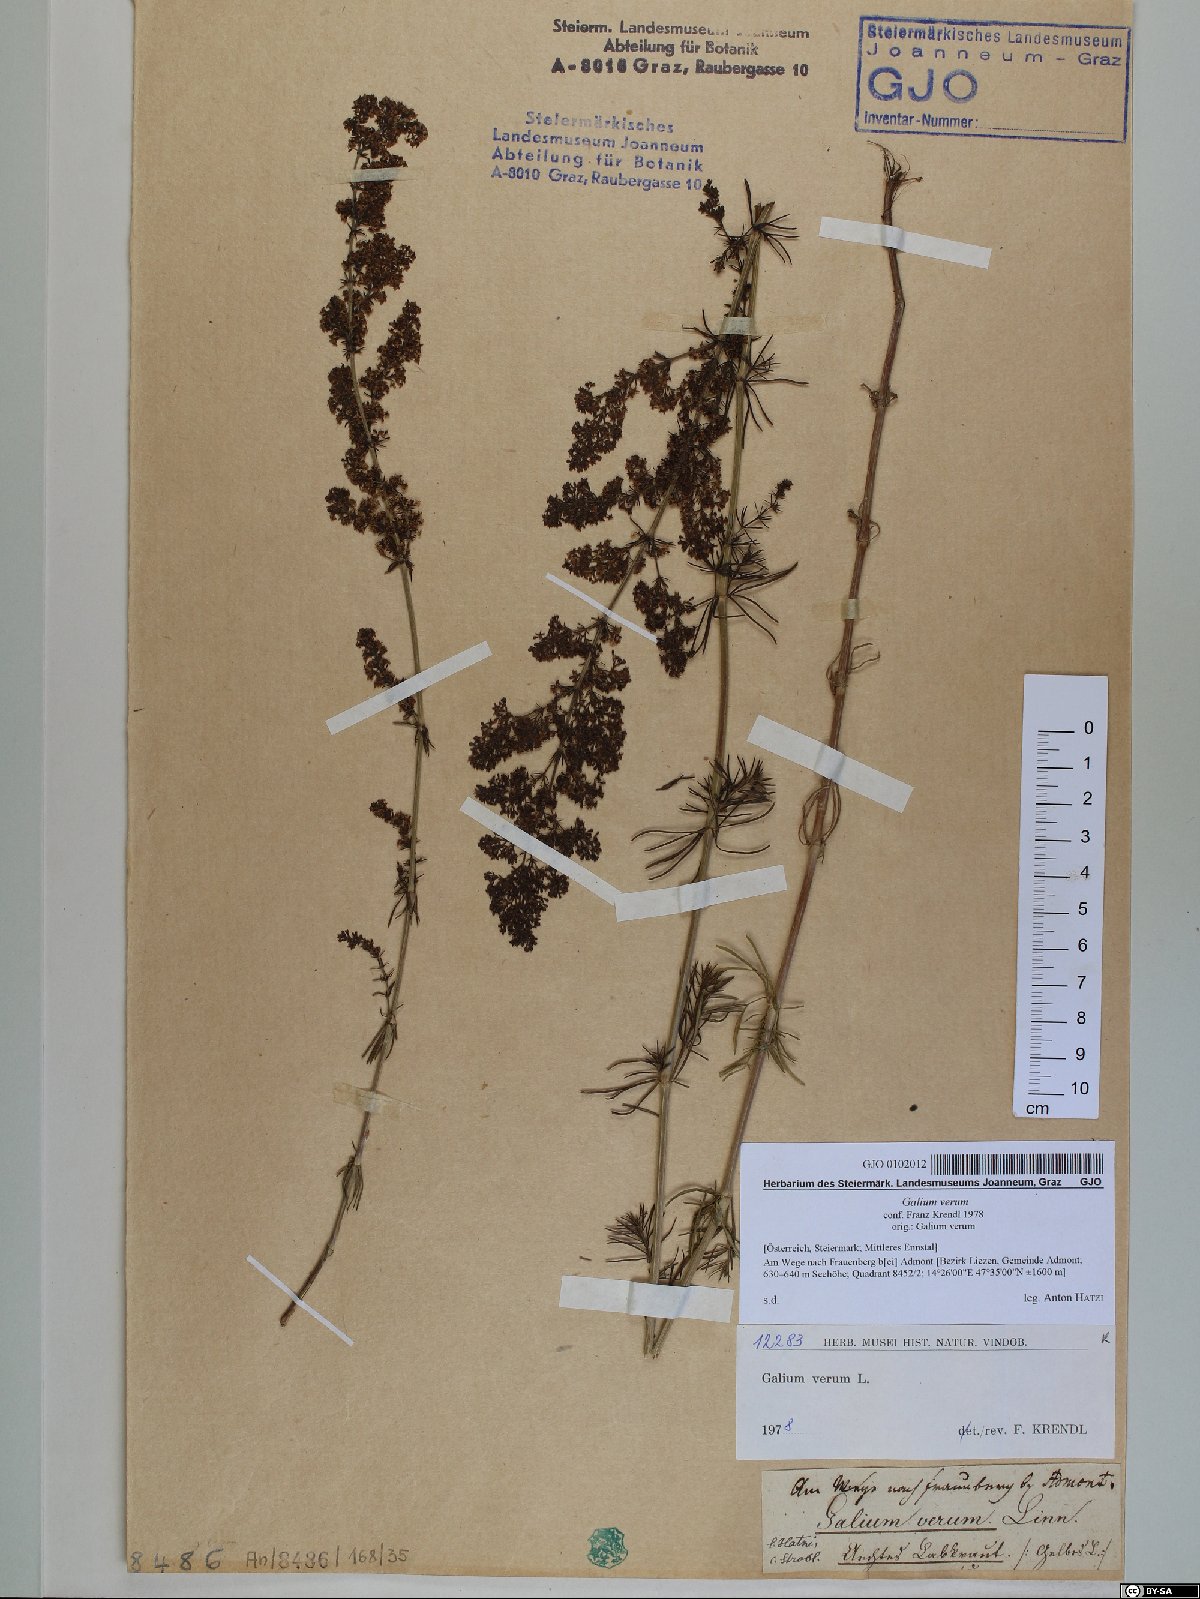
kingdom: Plantae
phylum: Tracheophyta
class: Magnoliopsida
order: Gentianales
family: Rubiaceae
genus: Galium
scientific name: Galium verum
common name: Lady's bedstraw
